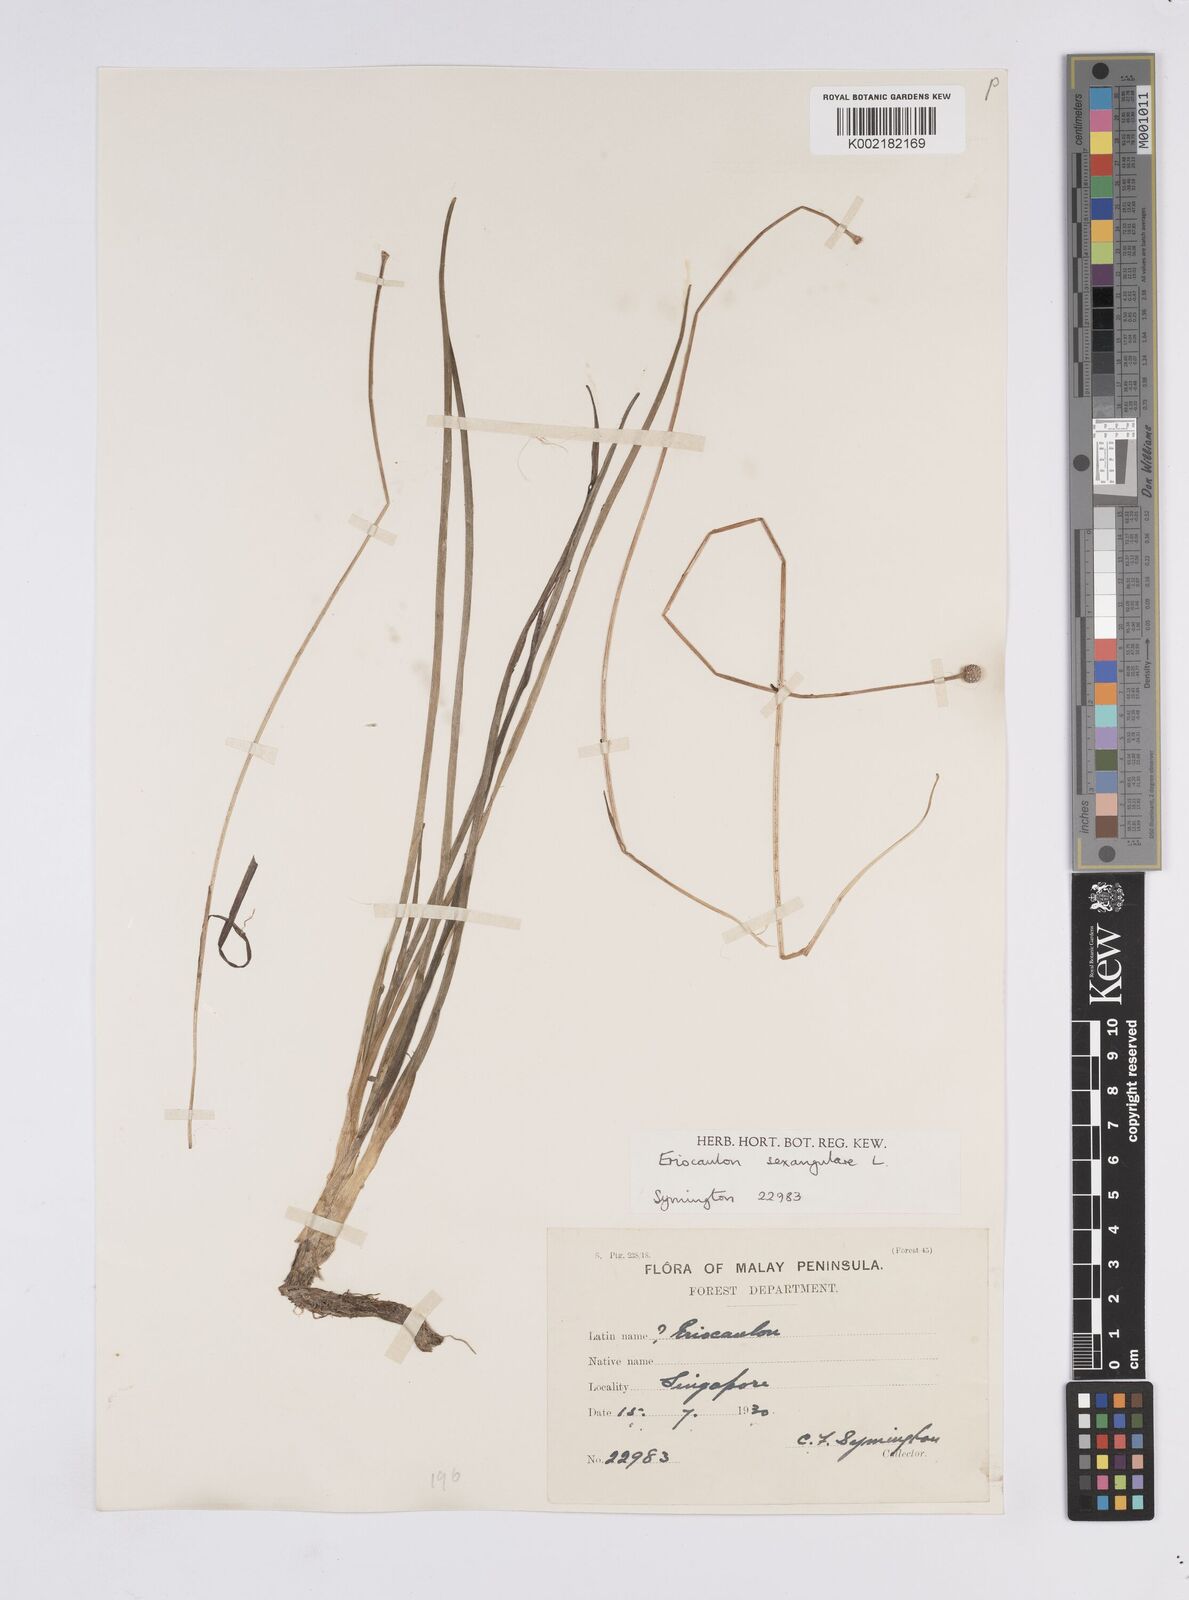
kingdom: Plantae
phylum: Tracheophyta
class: Liliopsida
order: Poales
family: Eriocaulaceae
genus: Eriocaulon
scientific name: Eriocaulon sexangulare
